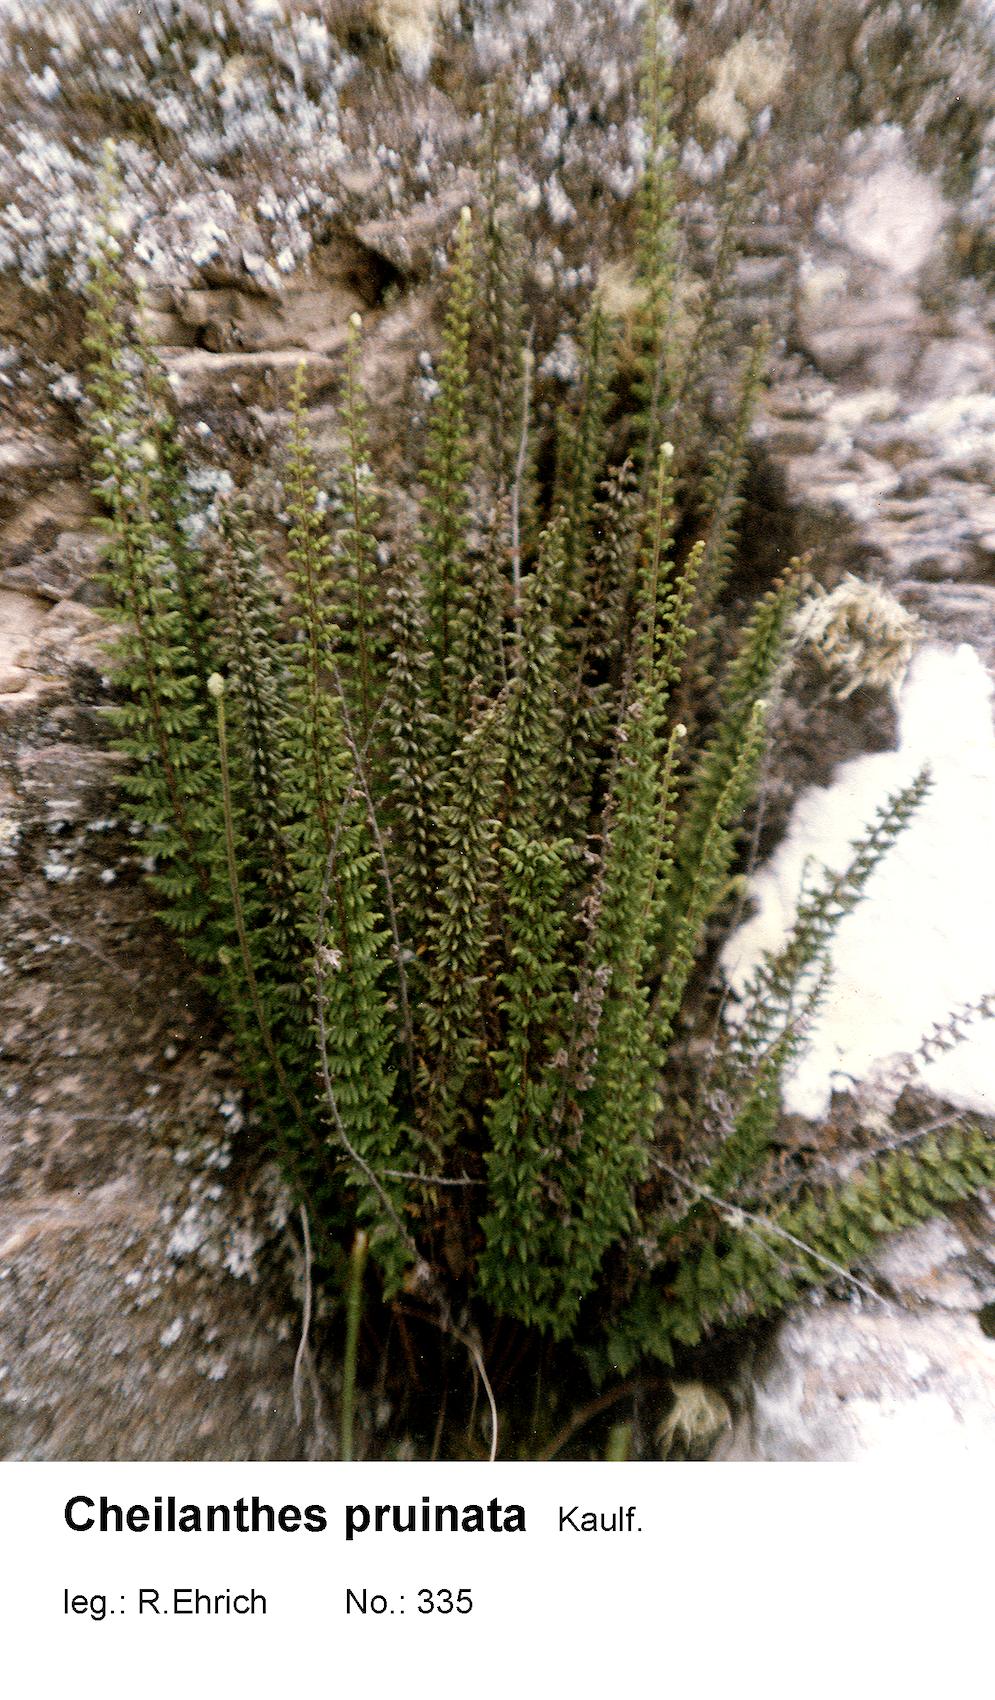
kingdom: Plantae
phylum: Tracheophyta
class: Polypodiopsida
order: Polypodiales
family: Pteridaceae
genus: Cheilanthes
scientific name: Cheilanthes pruinata
